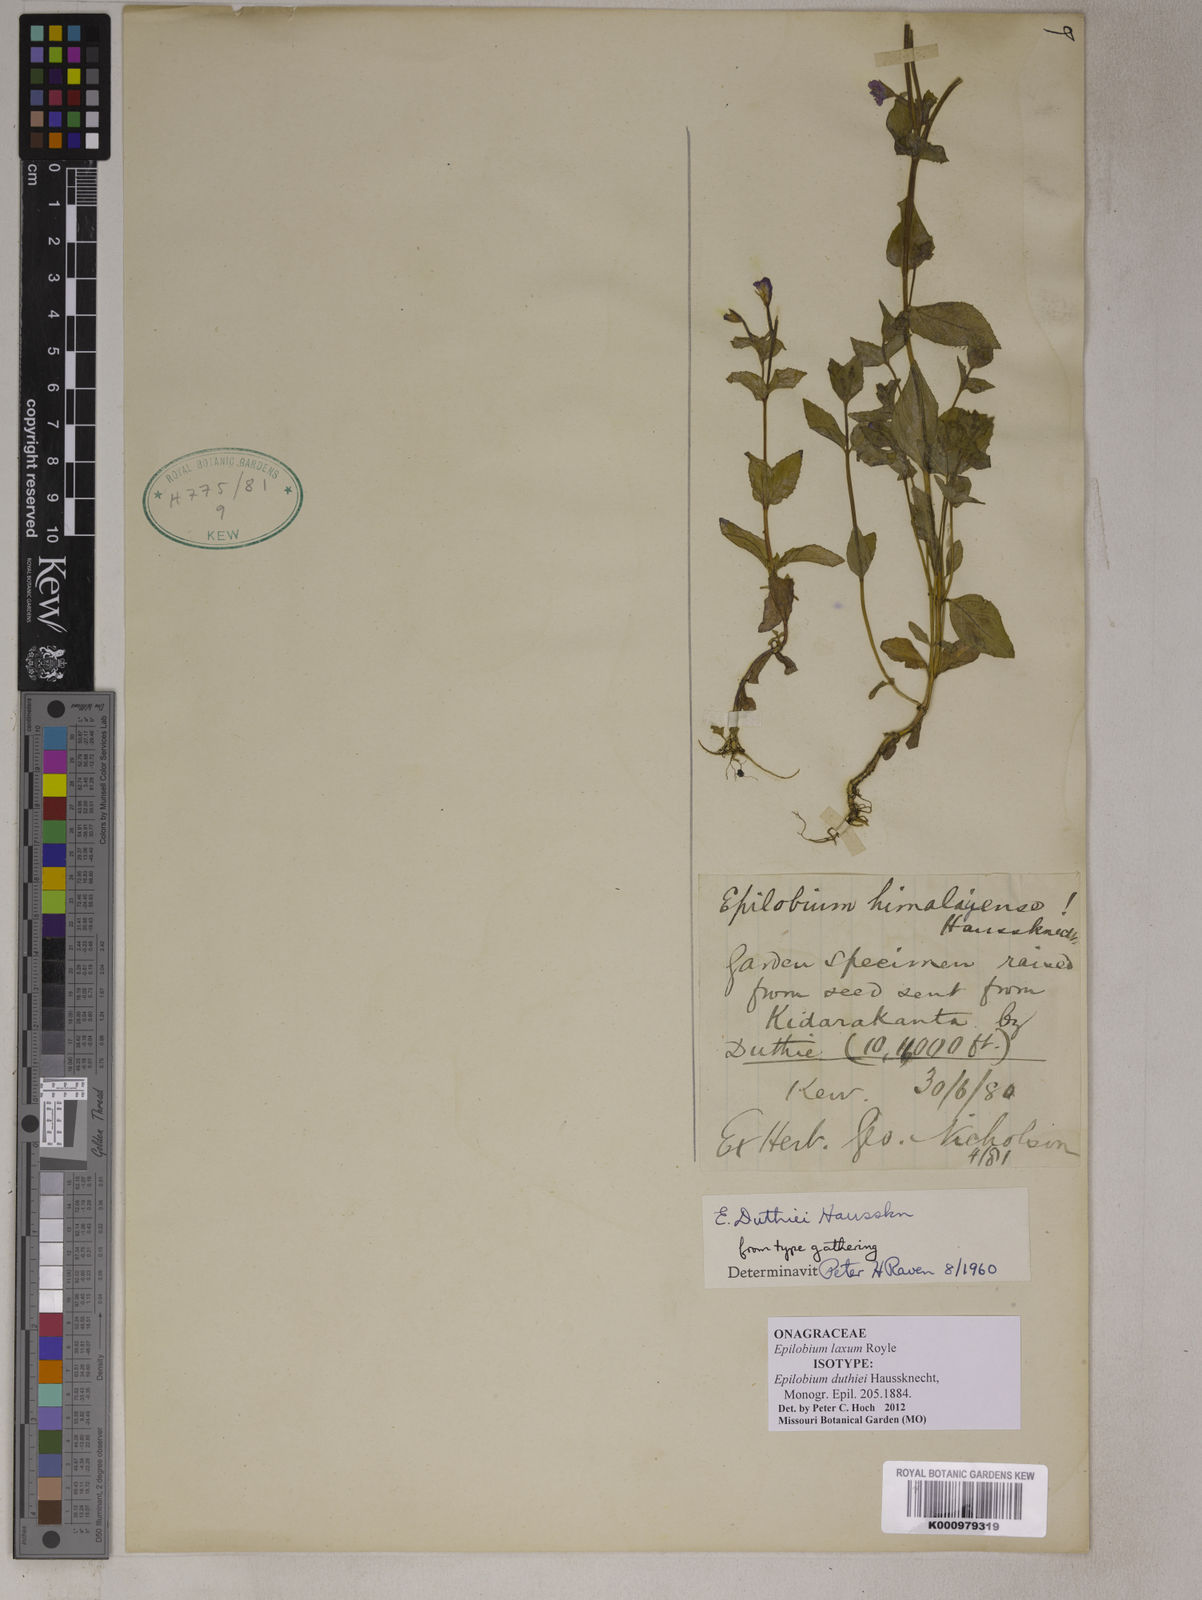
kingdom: Plantae
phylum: Tracheophyta
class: Magnoliopsida
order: Myrtales
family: Onagraceae
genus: Epilobium
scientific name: Epilobium laxum
